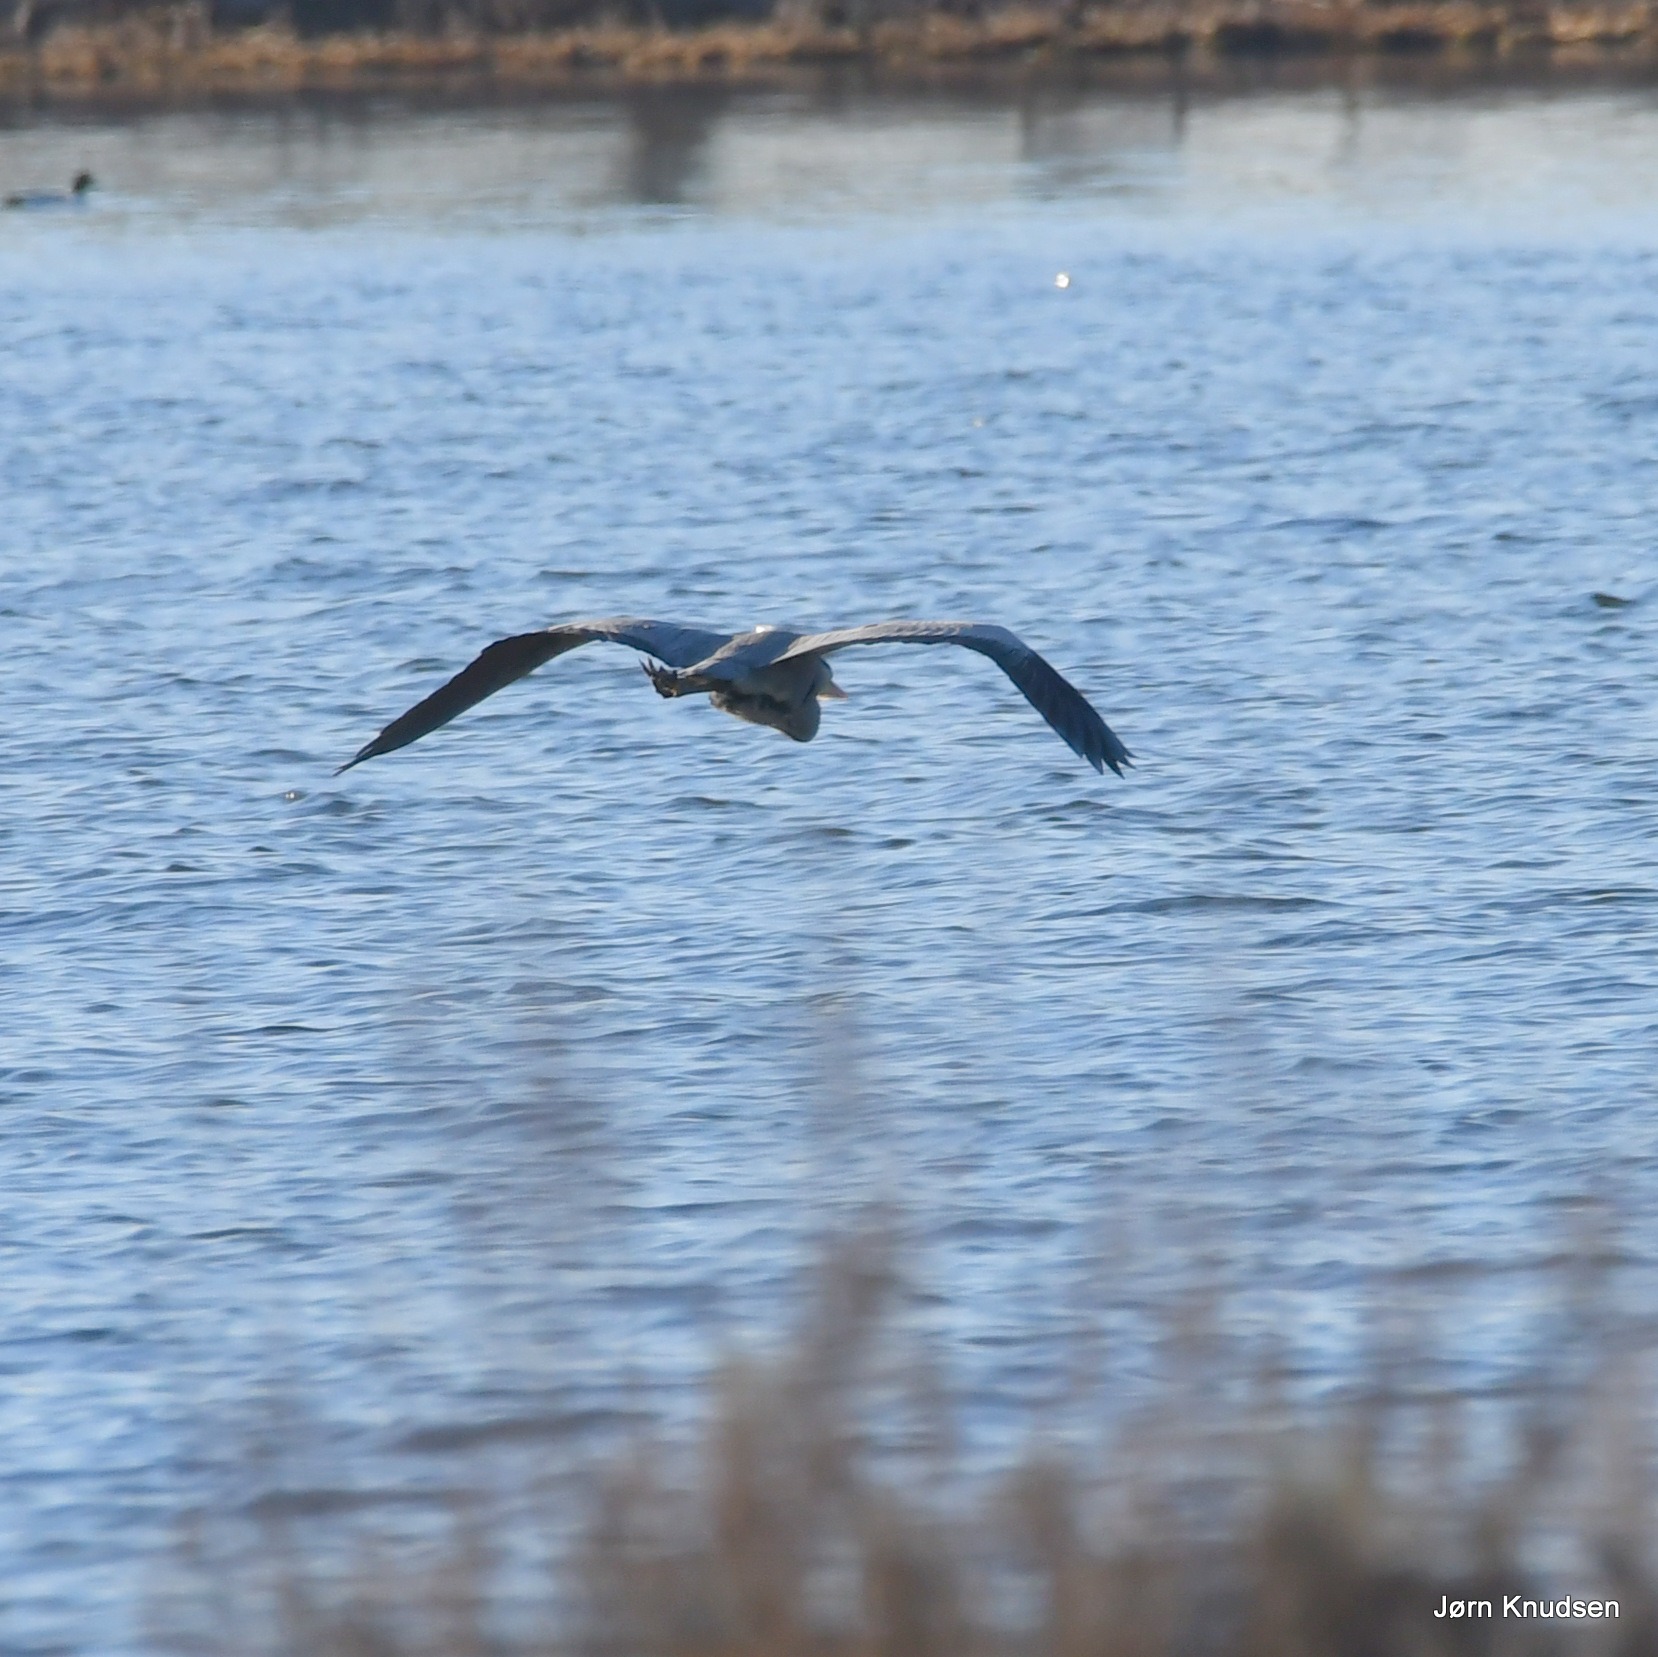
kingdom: Animalia
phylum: Chordata
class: Aves
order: Pelecaniformes
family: Ardeidae
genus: Ardea
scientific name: Ardea cinerea
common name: Fiskehejre
